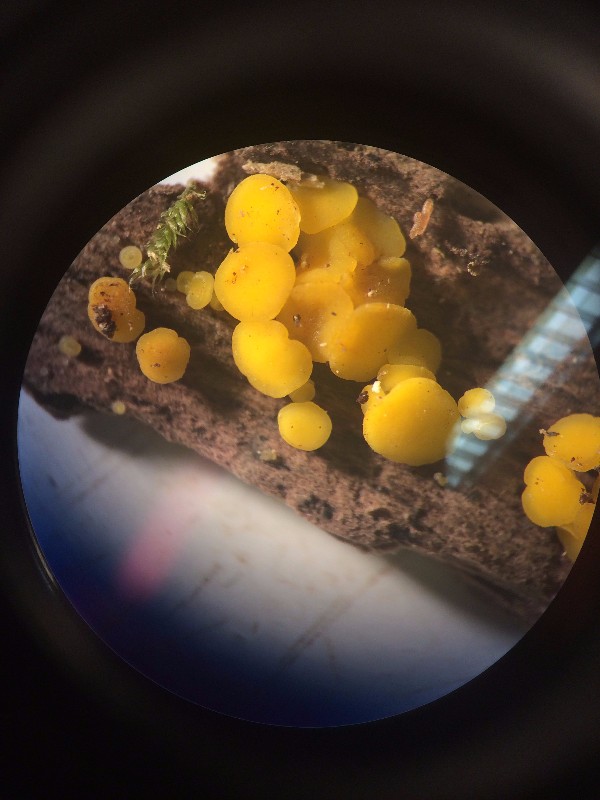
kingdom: Fungi
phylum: Ascomycota
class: Leotiomycetes
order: Helotiales
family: Pezizellaceae
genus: Calycina
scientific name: Calycina citrina
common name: almindelig gulskive
